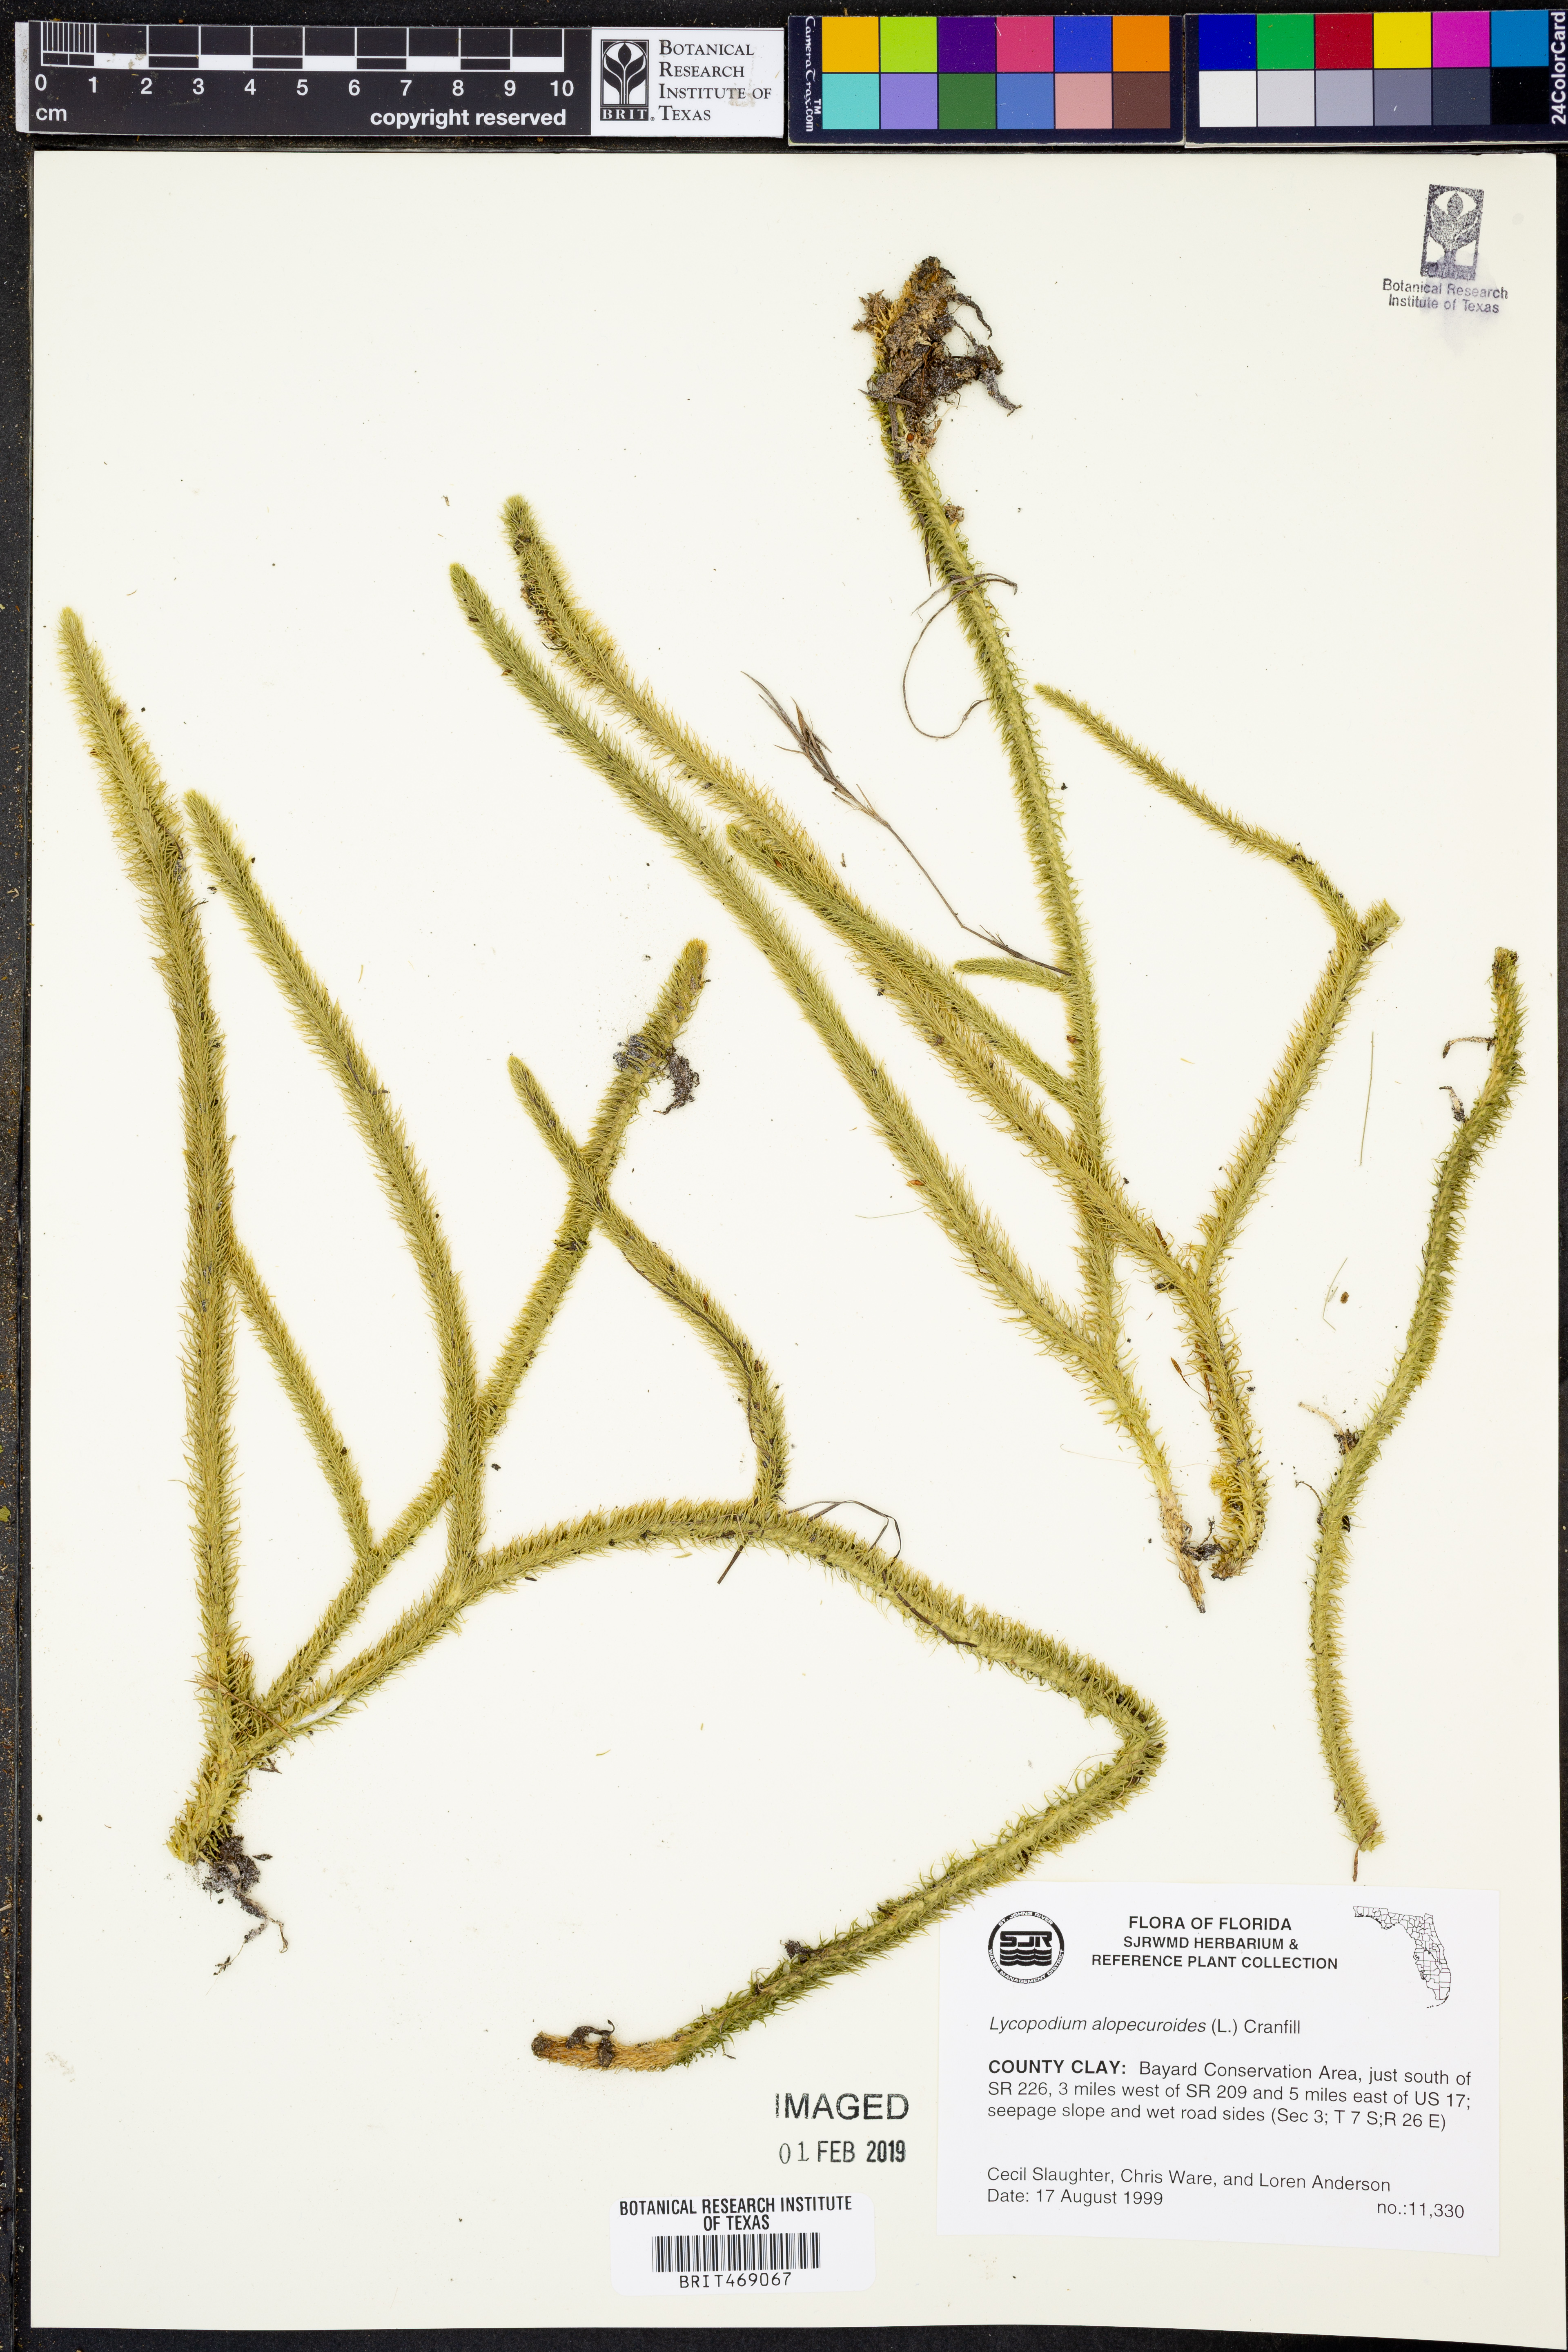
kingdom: Plantae
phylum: Tracheophyta
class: Lycopodiopsida
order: Lycopodiales
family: Lycopodiaceae
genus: Lycopodiella
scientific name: Lycopodiella alopecuroides
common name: Foxtail clubmoss
